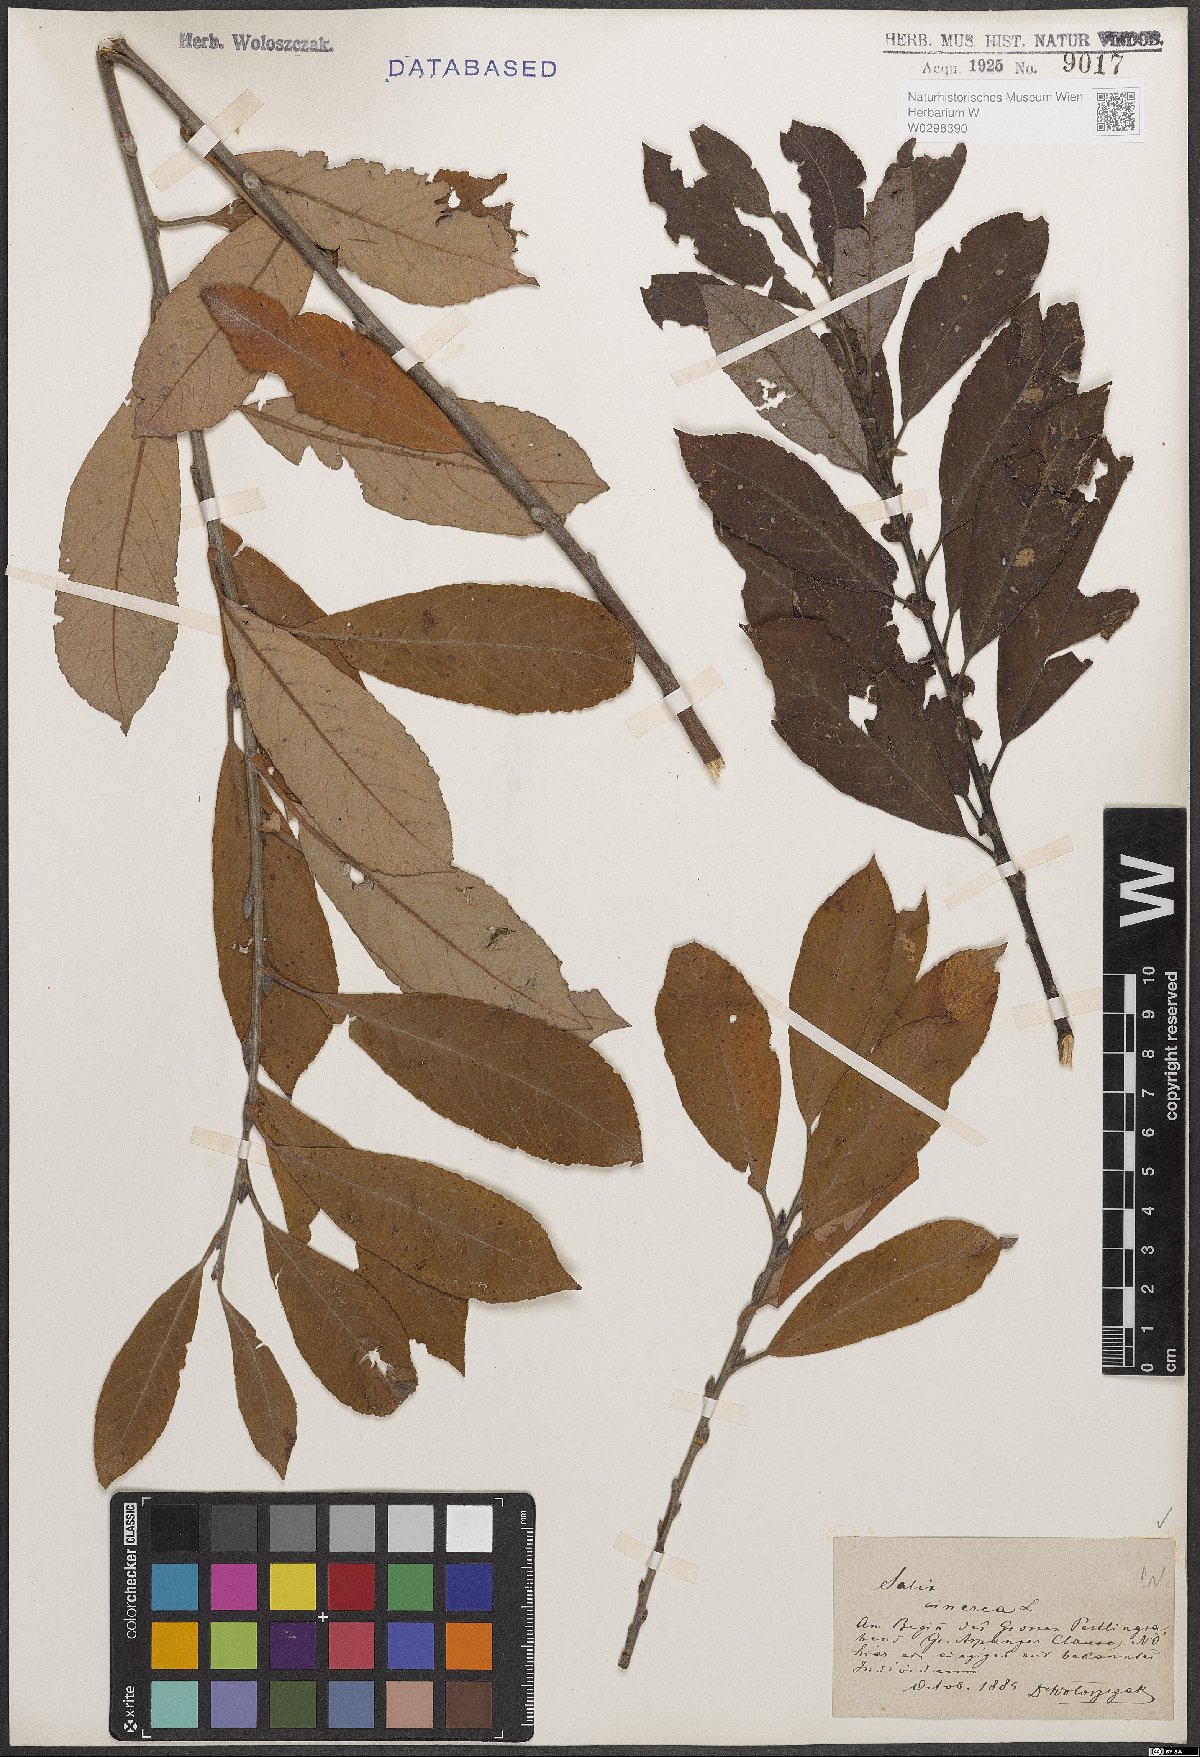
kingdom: Plantae
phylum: Tracheophyta
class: Magnoliopsida
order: Malpighiales
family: Salicaceae
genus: Salix
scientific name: Salix cinerea
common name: Common sallow
